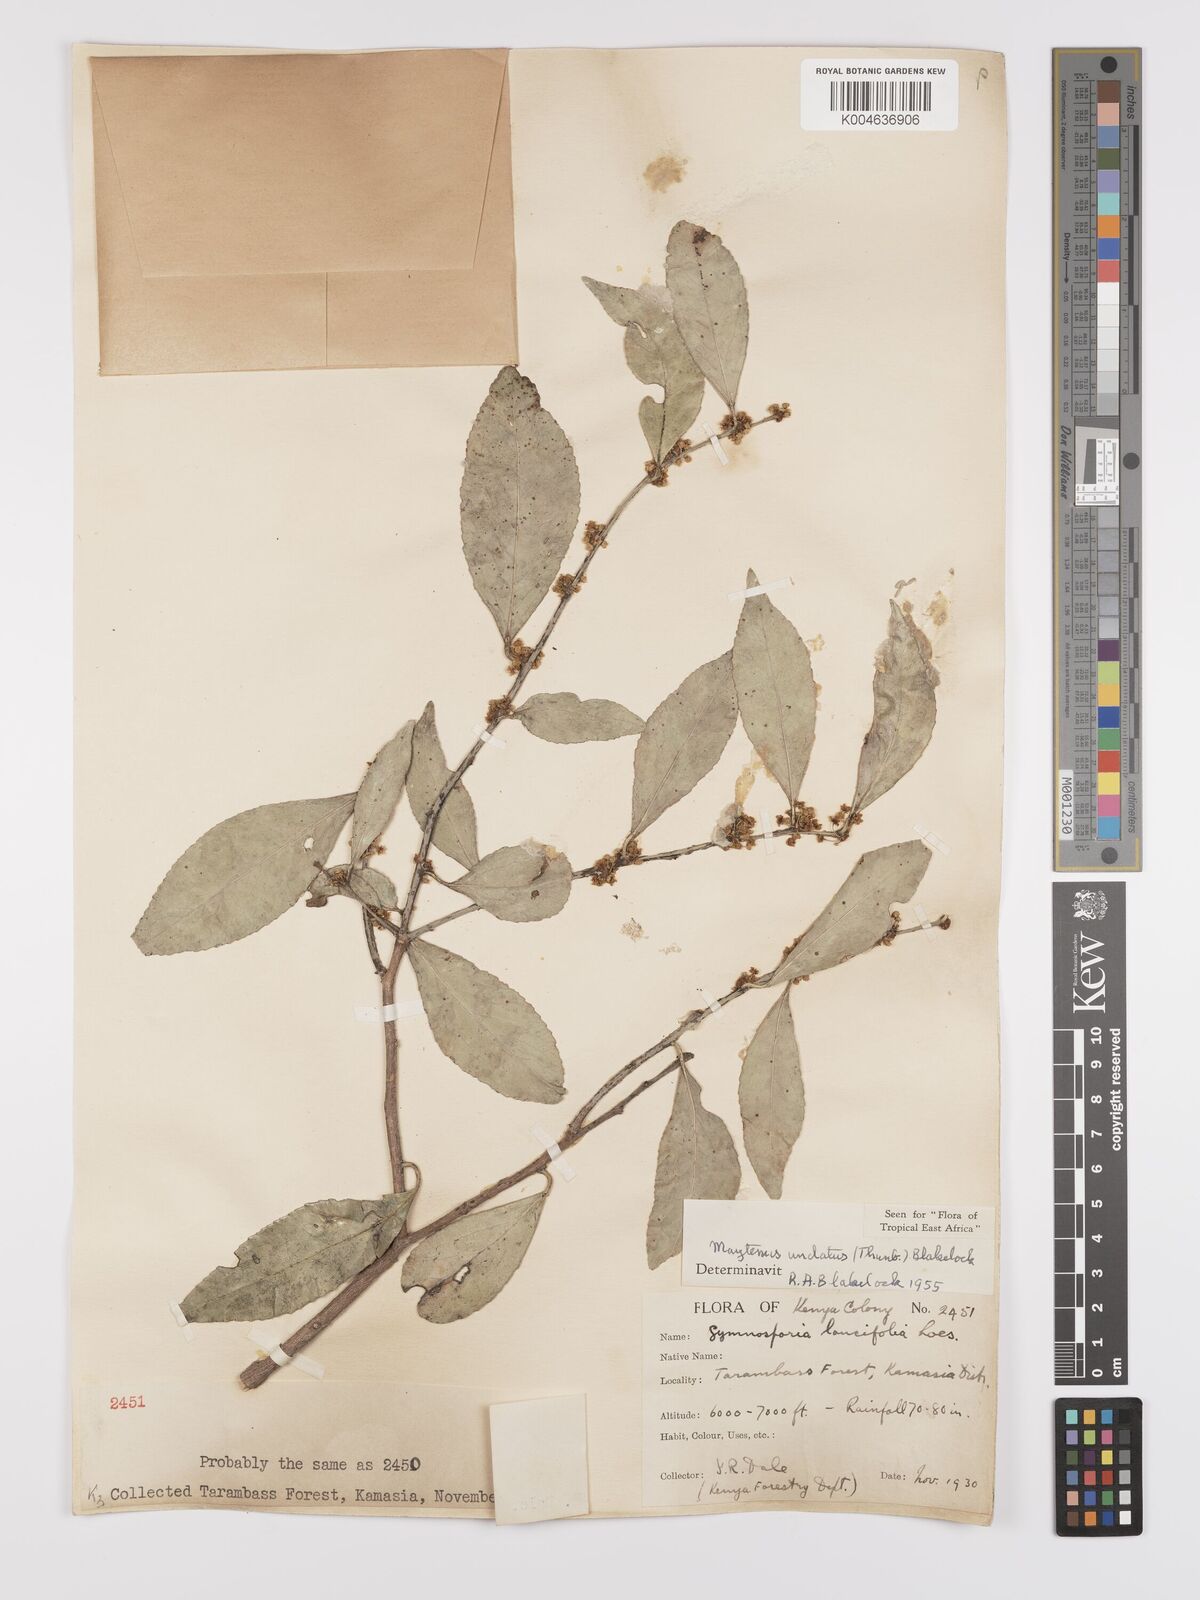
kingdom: Plantae
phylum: Tracheophyta
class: Magnoliopsida
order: Celastrales
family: Celastraceae
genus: Gymnosporia
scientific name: Gymnosporia undata
